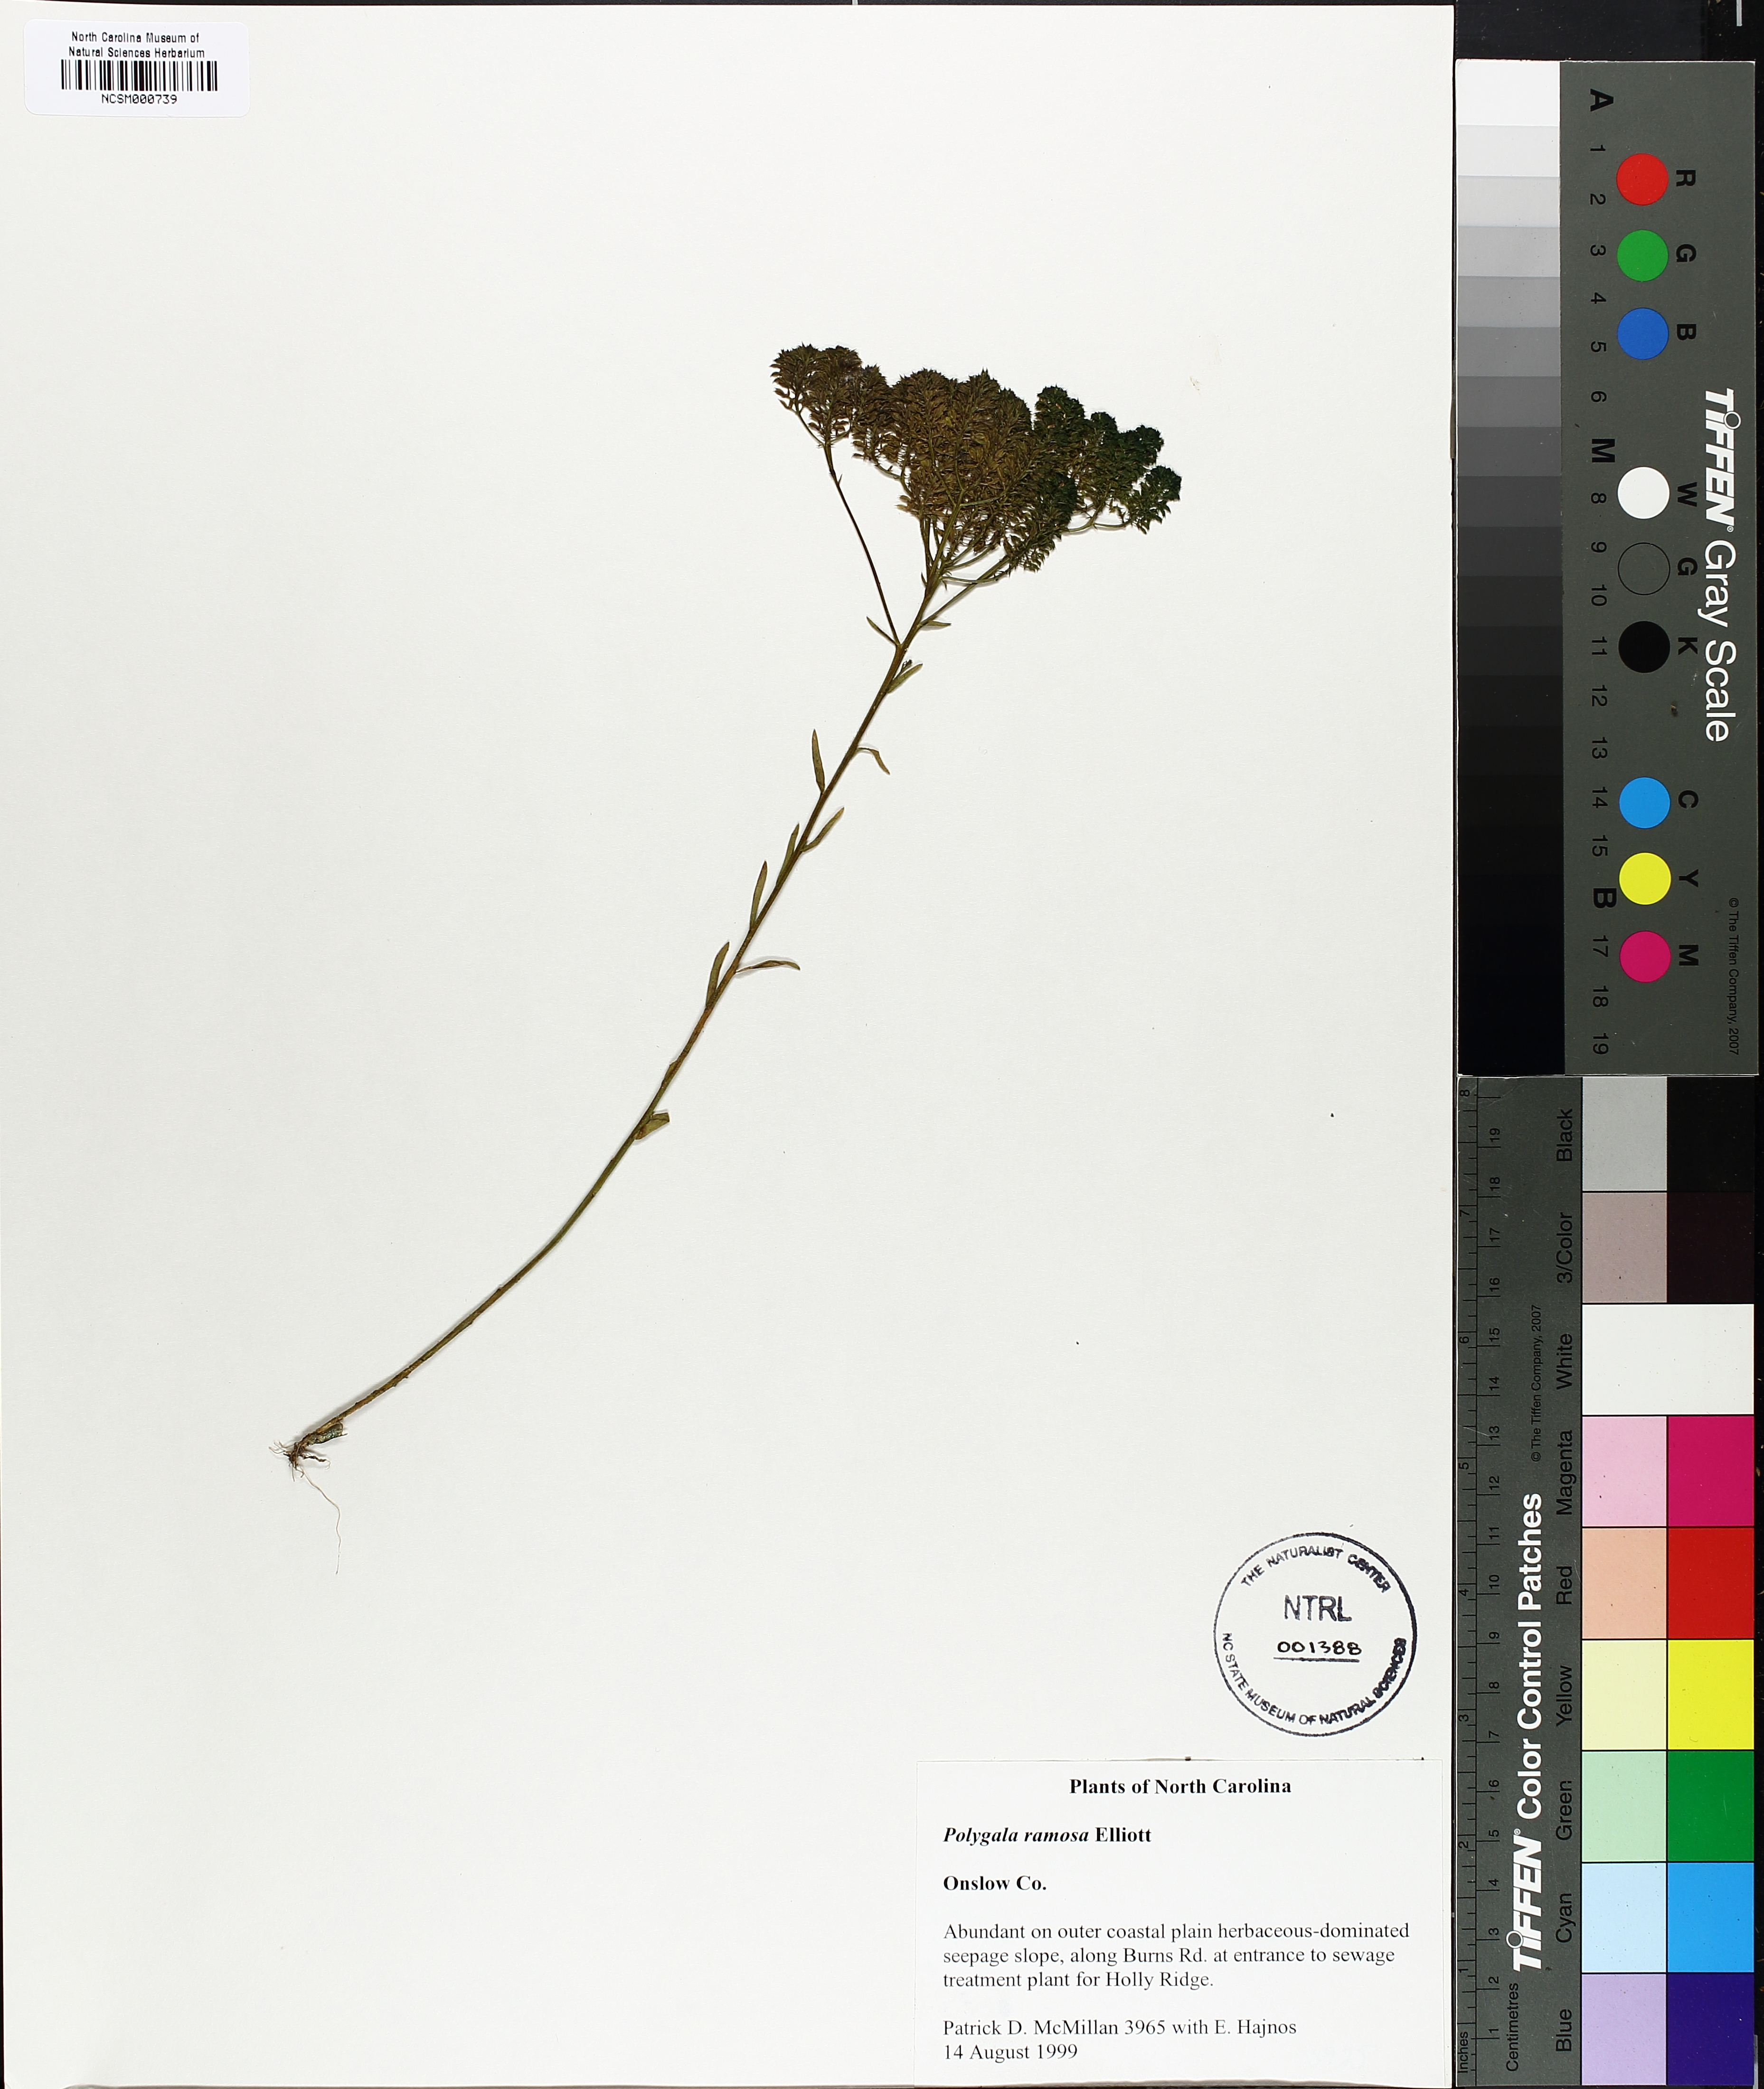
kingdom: Plantae
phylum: Tracheophyta
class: Magnoliopsida
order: Fabales
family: Polygalaceae
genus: Polygala
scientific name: Polygala ramosa
